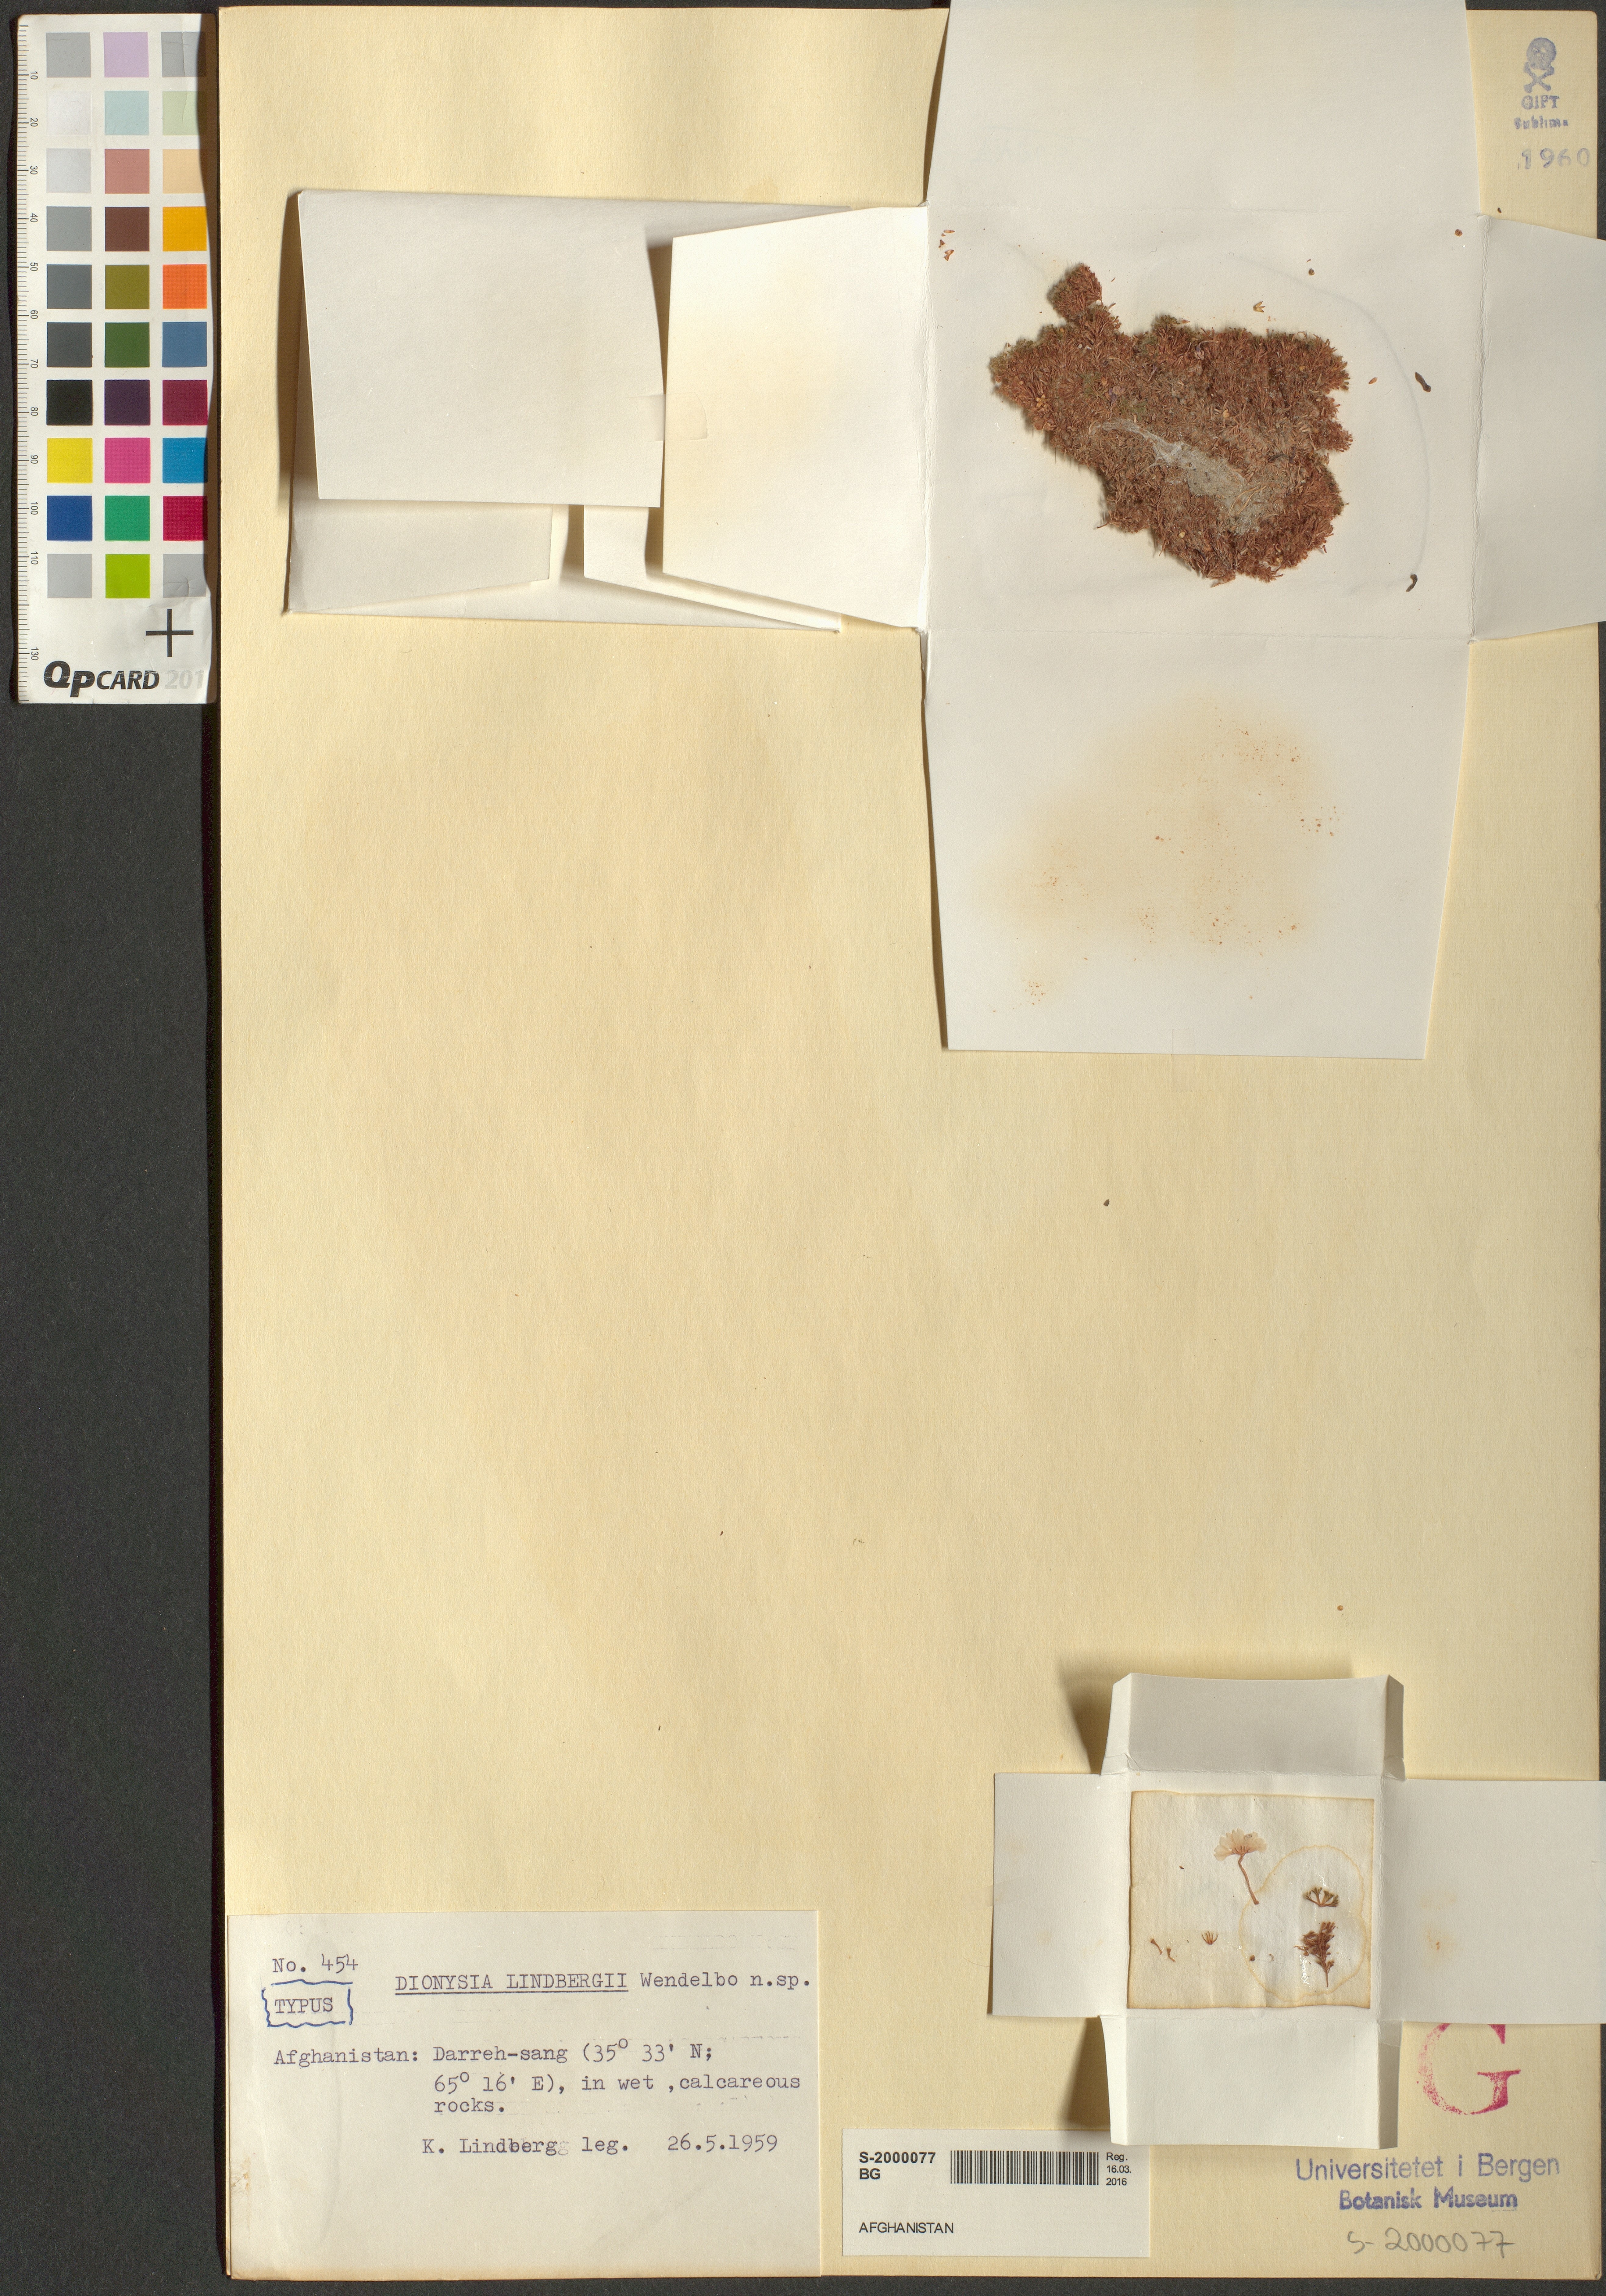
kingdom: Plantae
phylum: Tracheophyta
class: Magnoliopsida
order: Ericales
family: Primulaceae
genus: Dionysia
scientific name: Dionysia lindbergii
